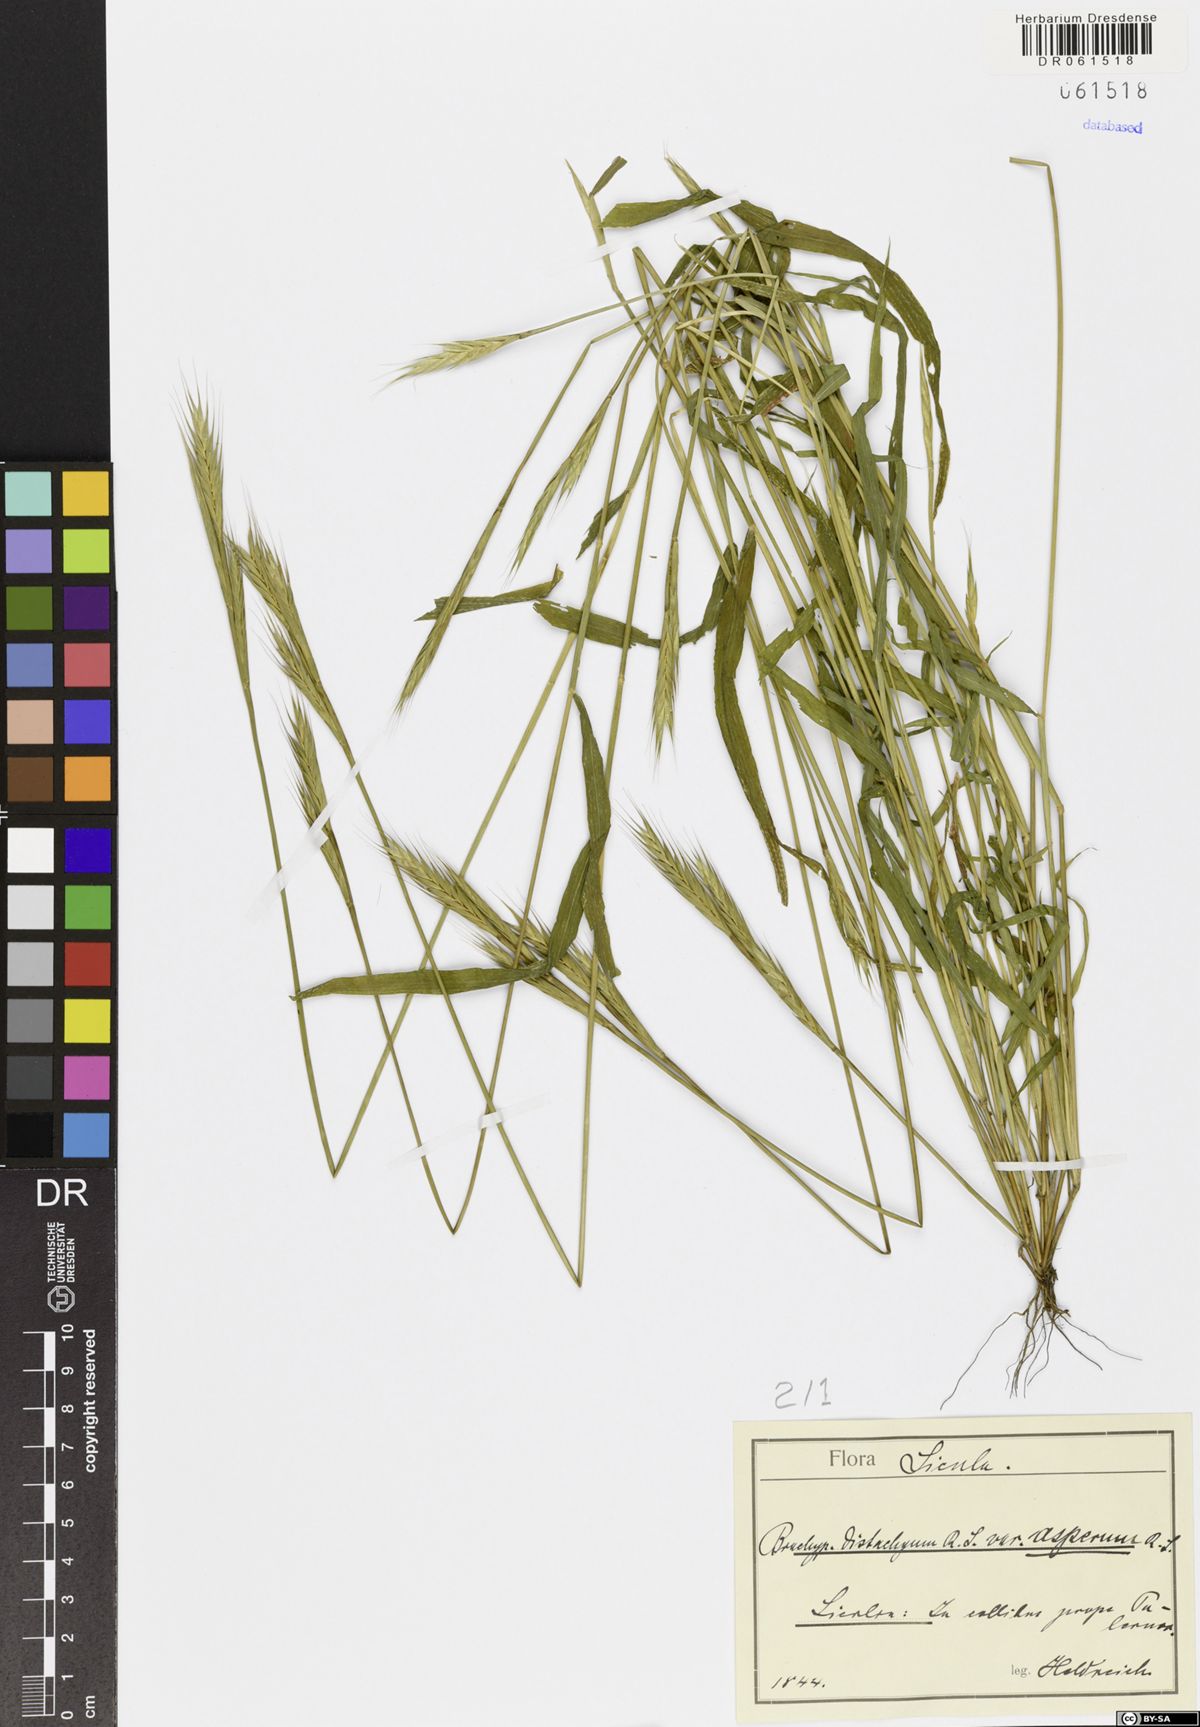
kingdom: Plantae
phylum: Tracheophyta
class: Liliopsida
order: Poales
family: Poaceae
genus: Brachypodium
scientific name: Brachypodium distachyon
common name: Stiff brome
